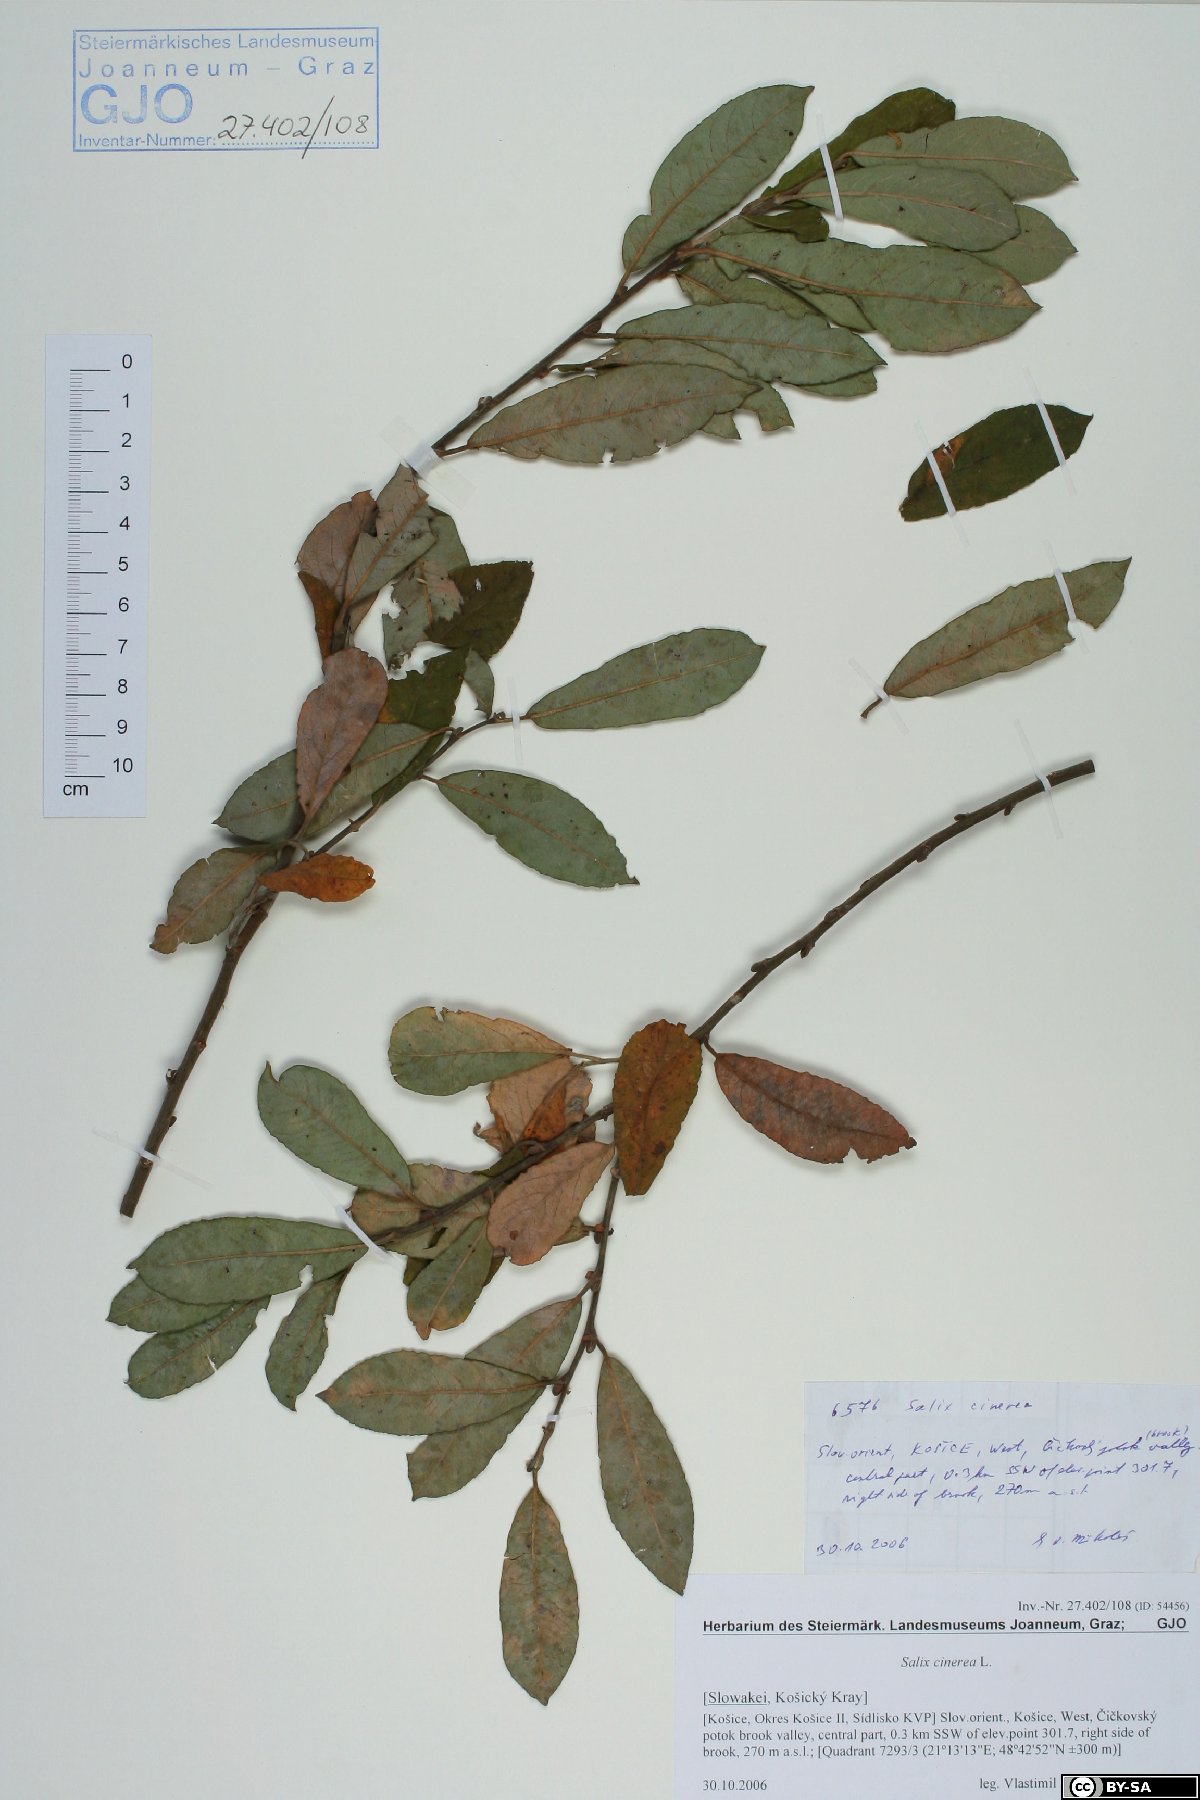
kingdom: Plantae
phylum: Tracheophyta
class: Magnoliopsida
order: Malpighiales
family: Salicaceae
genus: Salix
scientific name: Salix cinerea
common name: Common sallow
